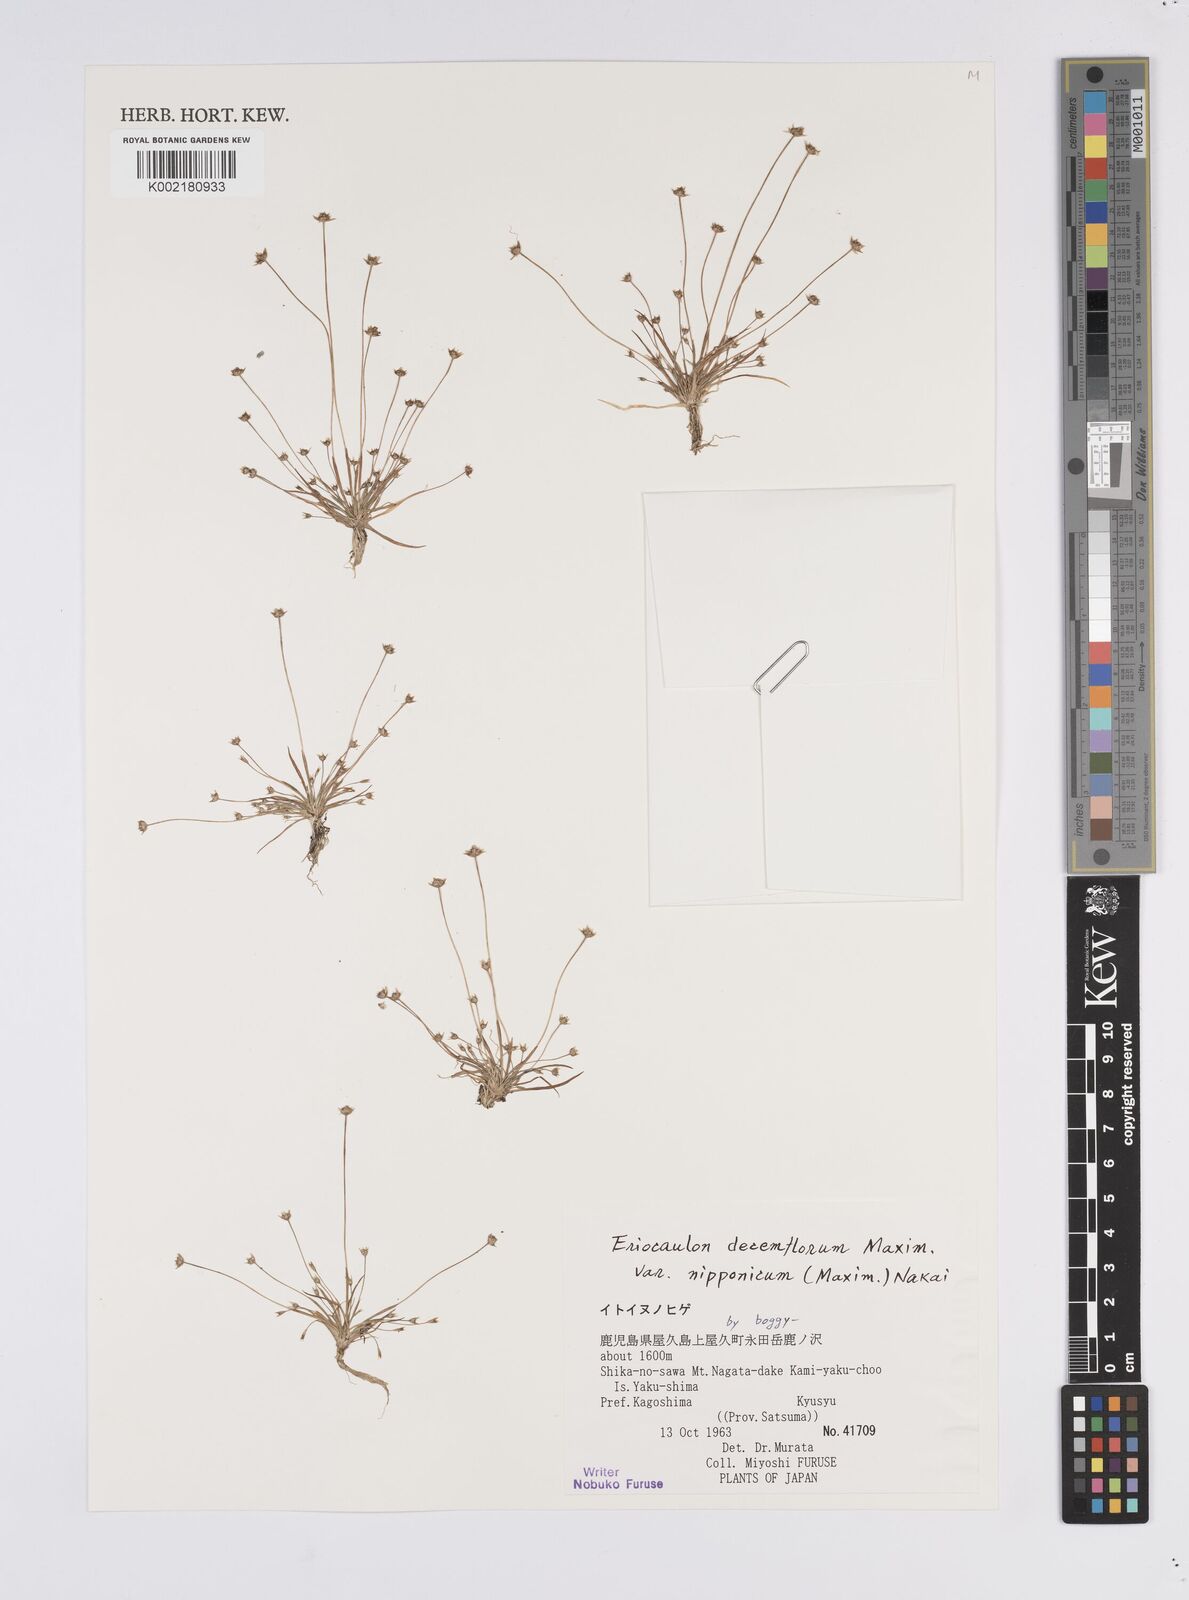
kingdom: Plantae
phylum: Tracheophyta
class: Liliopsida
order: Poales
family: Eriocaulaceae
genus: Eriocaulon
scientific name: Eriocaulon decemflorum
